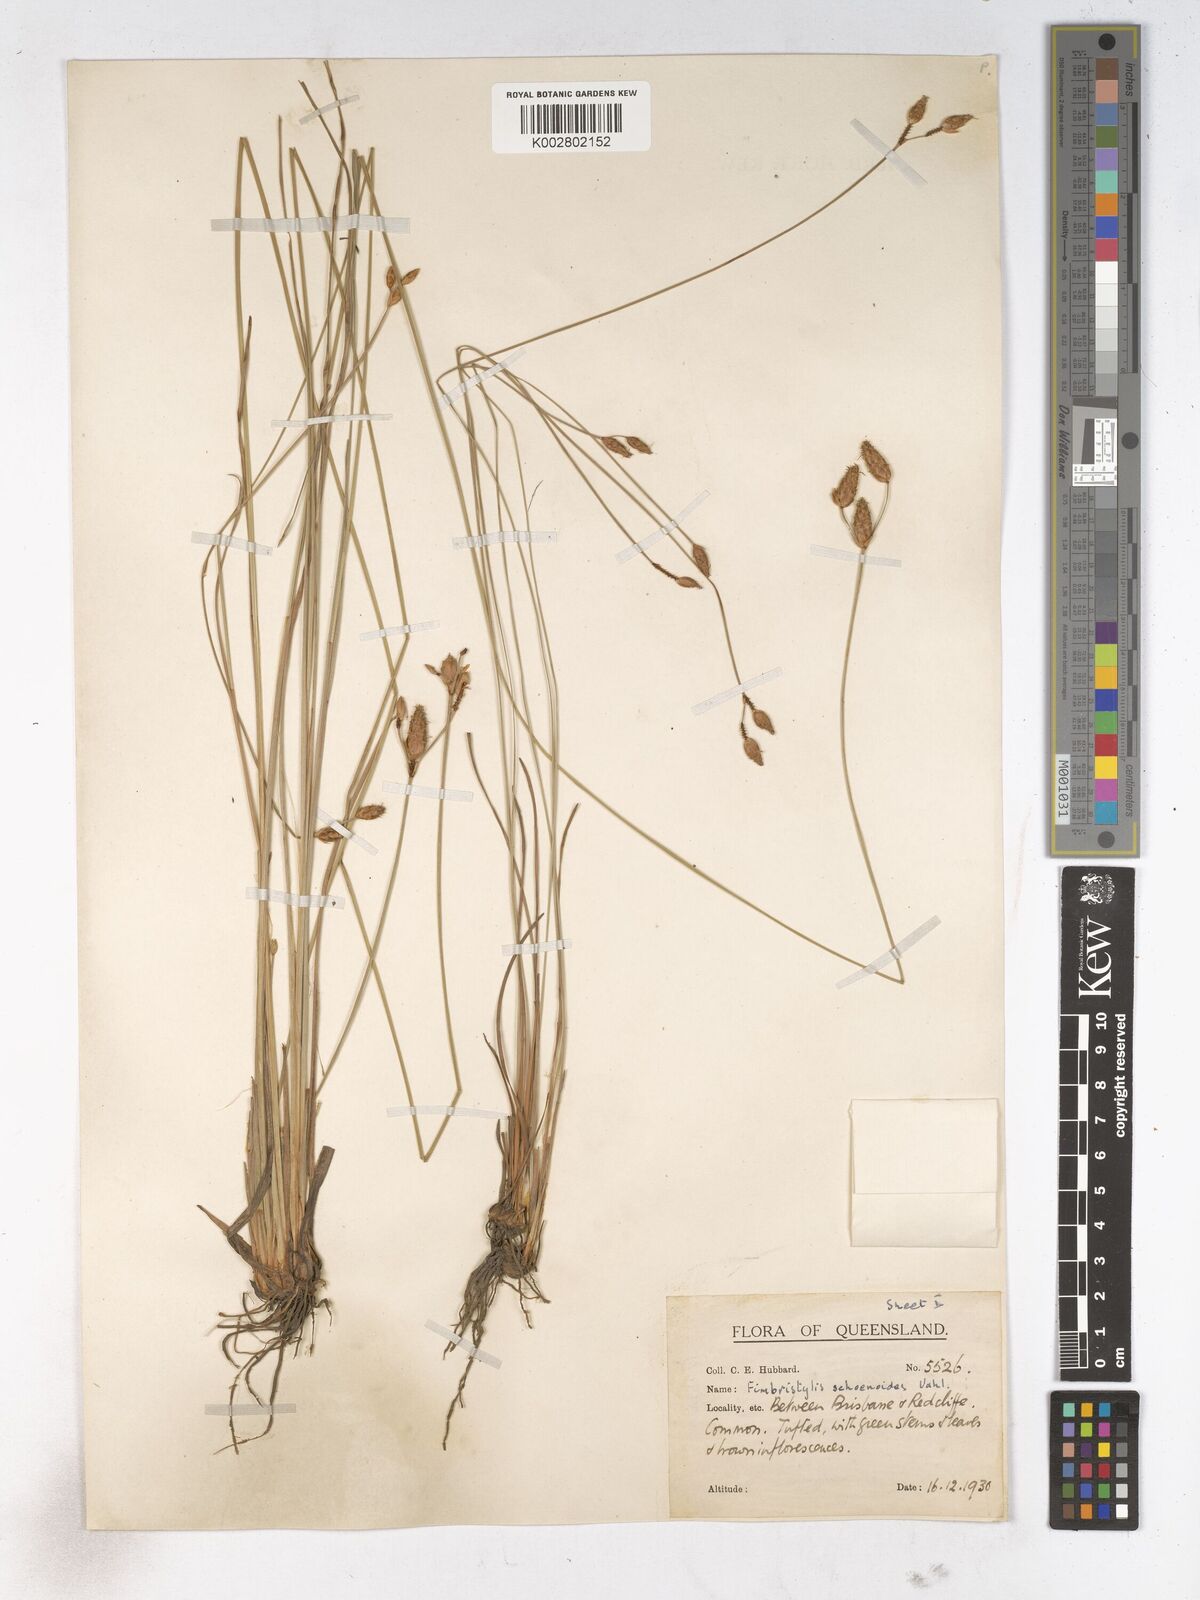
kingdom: Plantae
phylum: Tracheophyta
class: Liliopsida
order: Poales
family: Cyperaceae
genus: Fimbristylis
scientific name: Fimbristylis schoenoides
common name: Ditch fimbry
